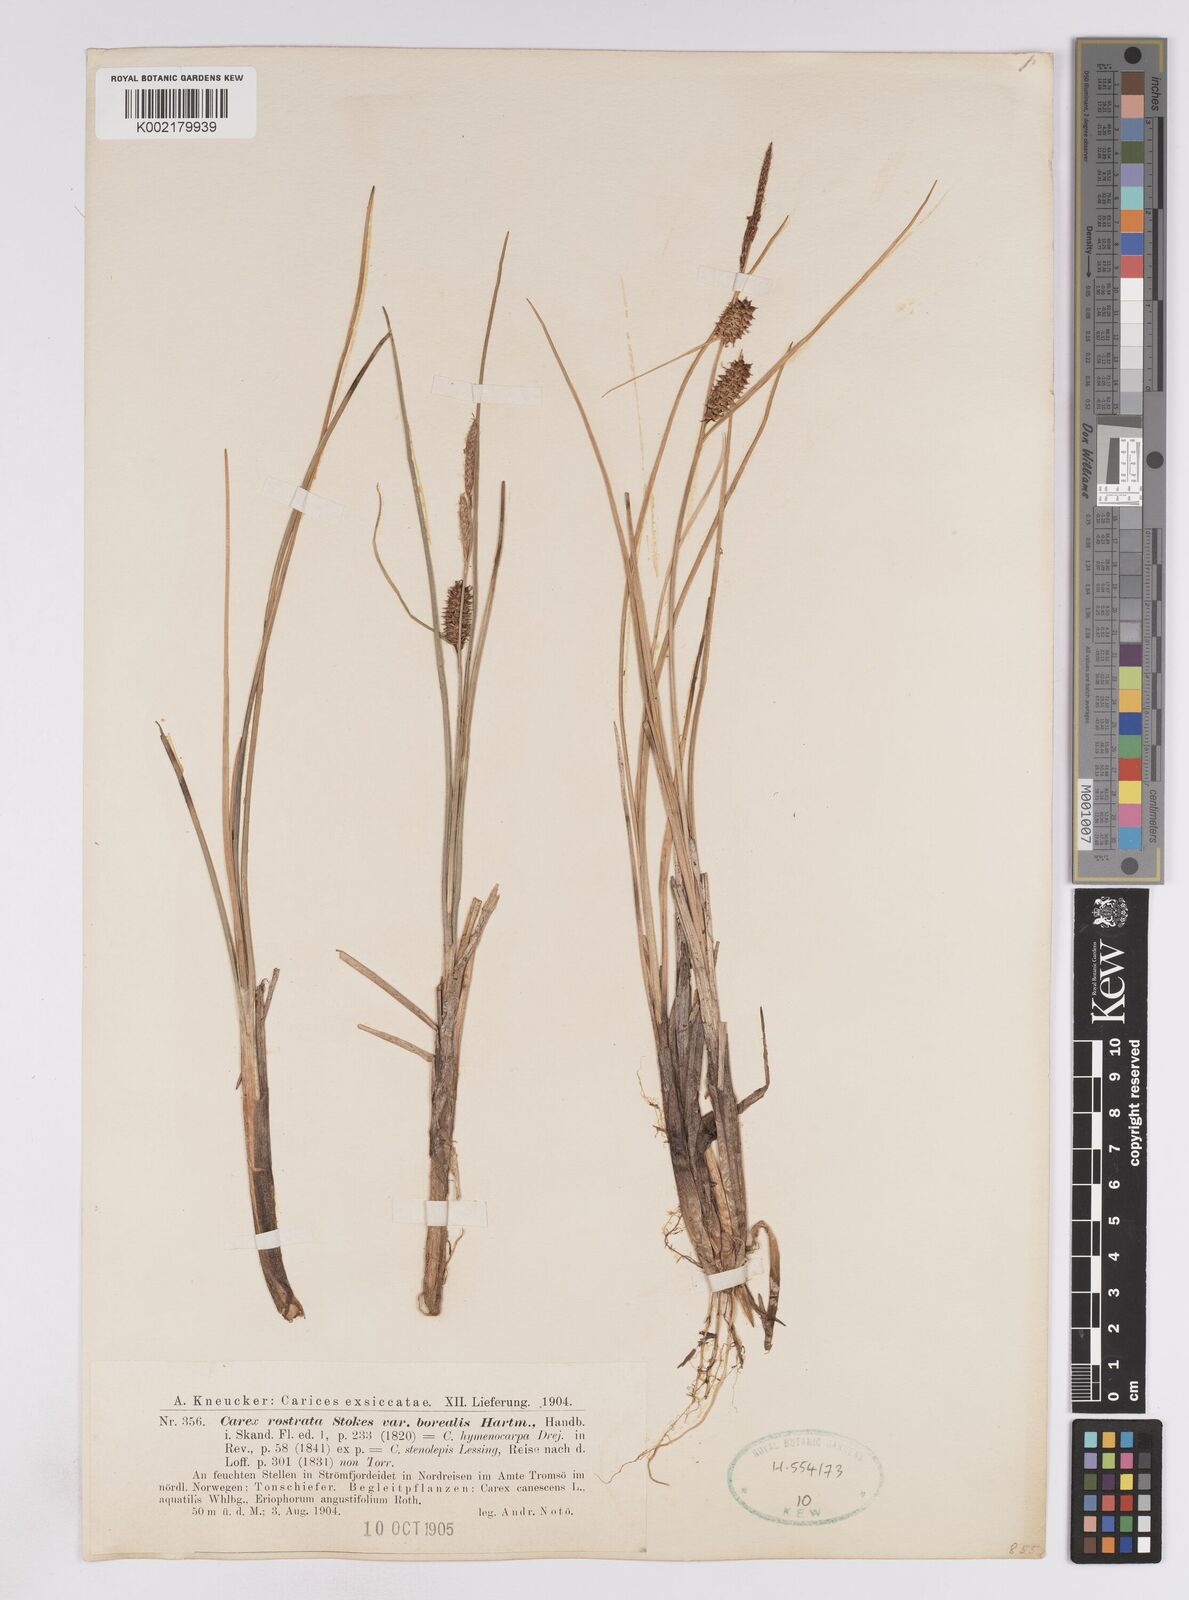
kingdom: Plantae
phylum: Tracheophyta
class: Liliopsida
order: Poales
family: Cyperaceae
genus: Carex
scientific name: Carex saamica
